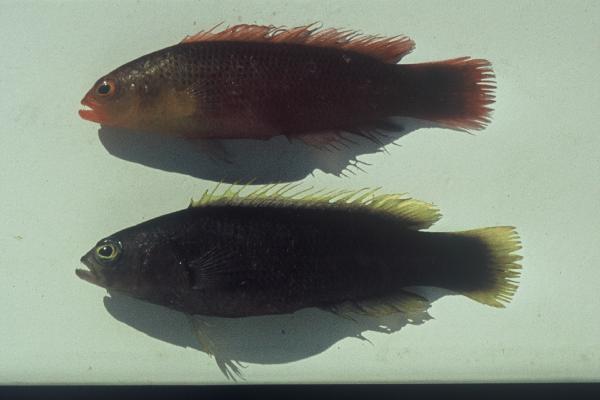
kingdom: Animalia
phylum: Chordata
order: Perciformes
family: Pseudochromidae
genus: Pseudochromis
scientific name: Pseudochromis natalensis
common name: Natal dottyback
